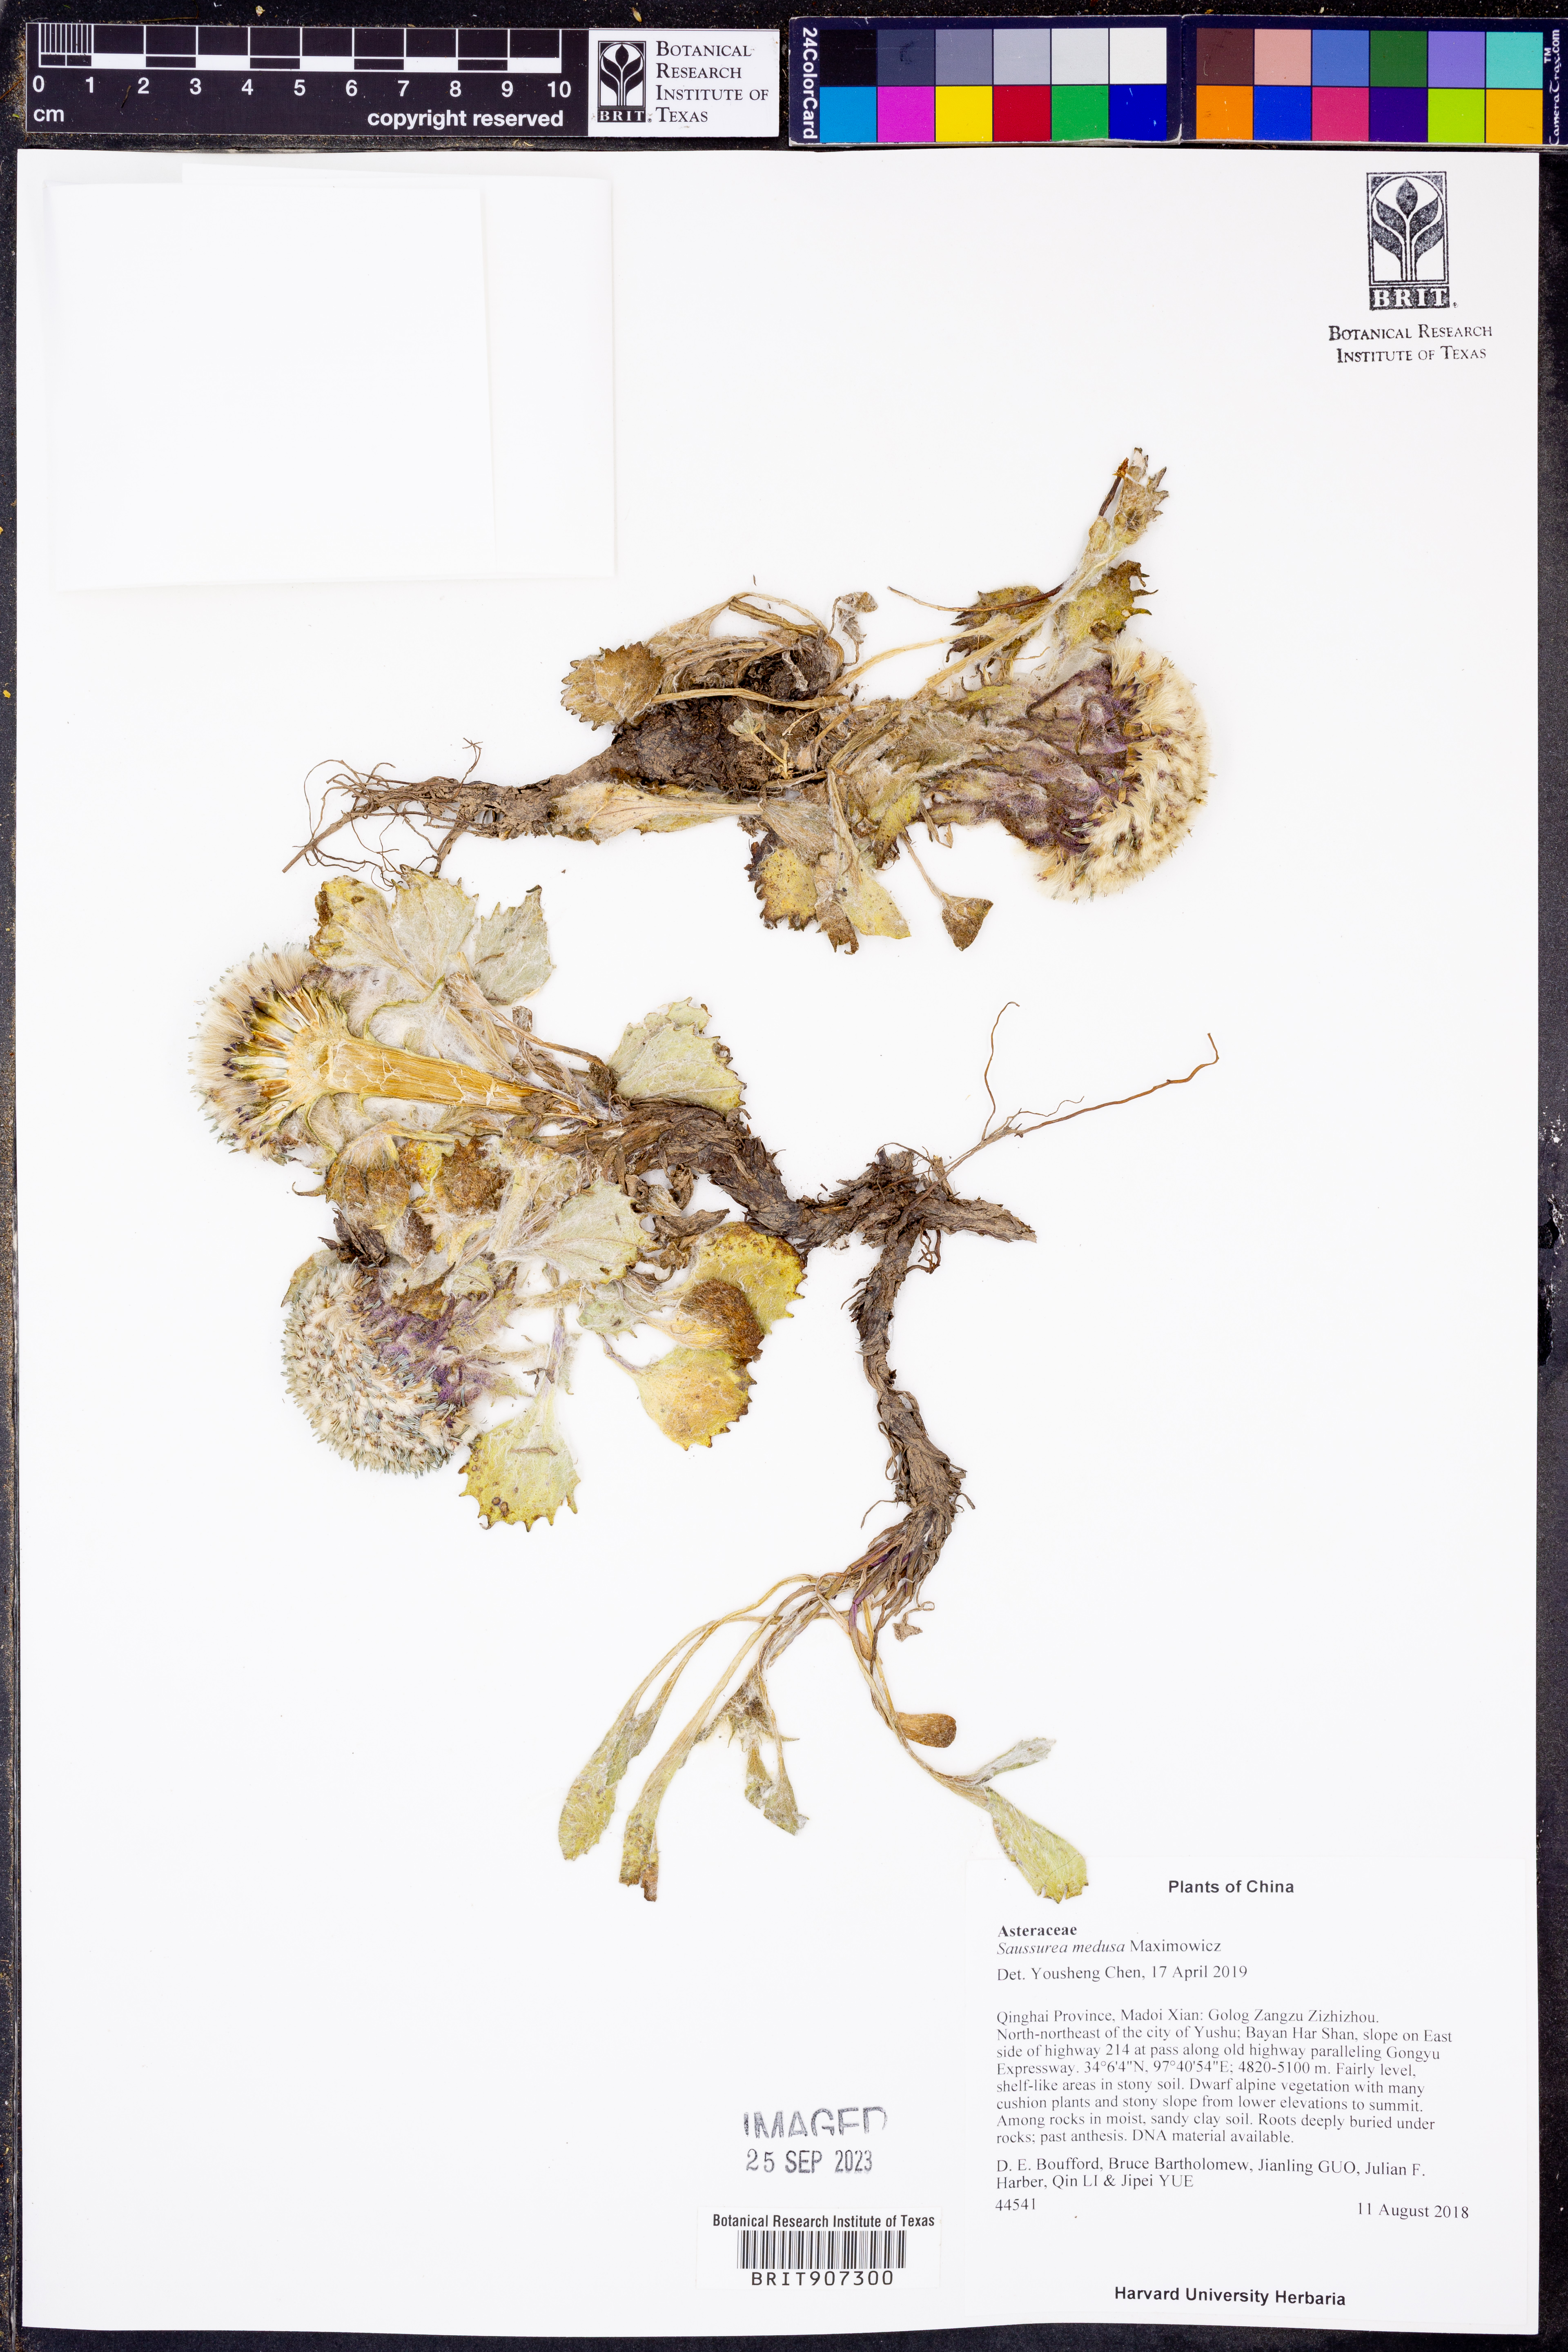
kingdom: Plantae
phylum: Tracheophyta
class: Magnoliopsida
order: Asterales
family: Asteraceae
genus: Saussurea
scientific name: Saussurea medusa
